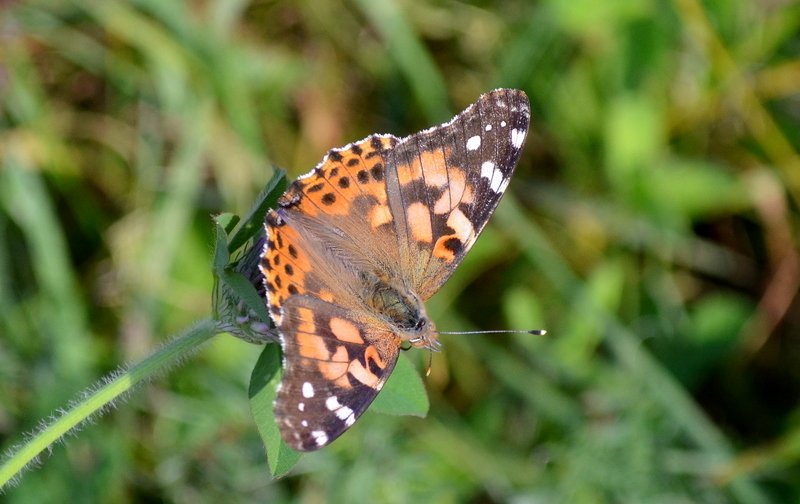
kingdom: Animalia
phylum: Arthropoda
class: Insecta
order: Lepidoptera
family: Nymphalidae
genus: Vanessa
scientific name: Vanessa cardui
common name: Painted Lady
